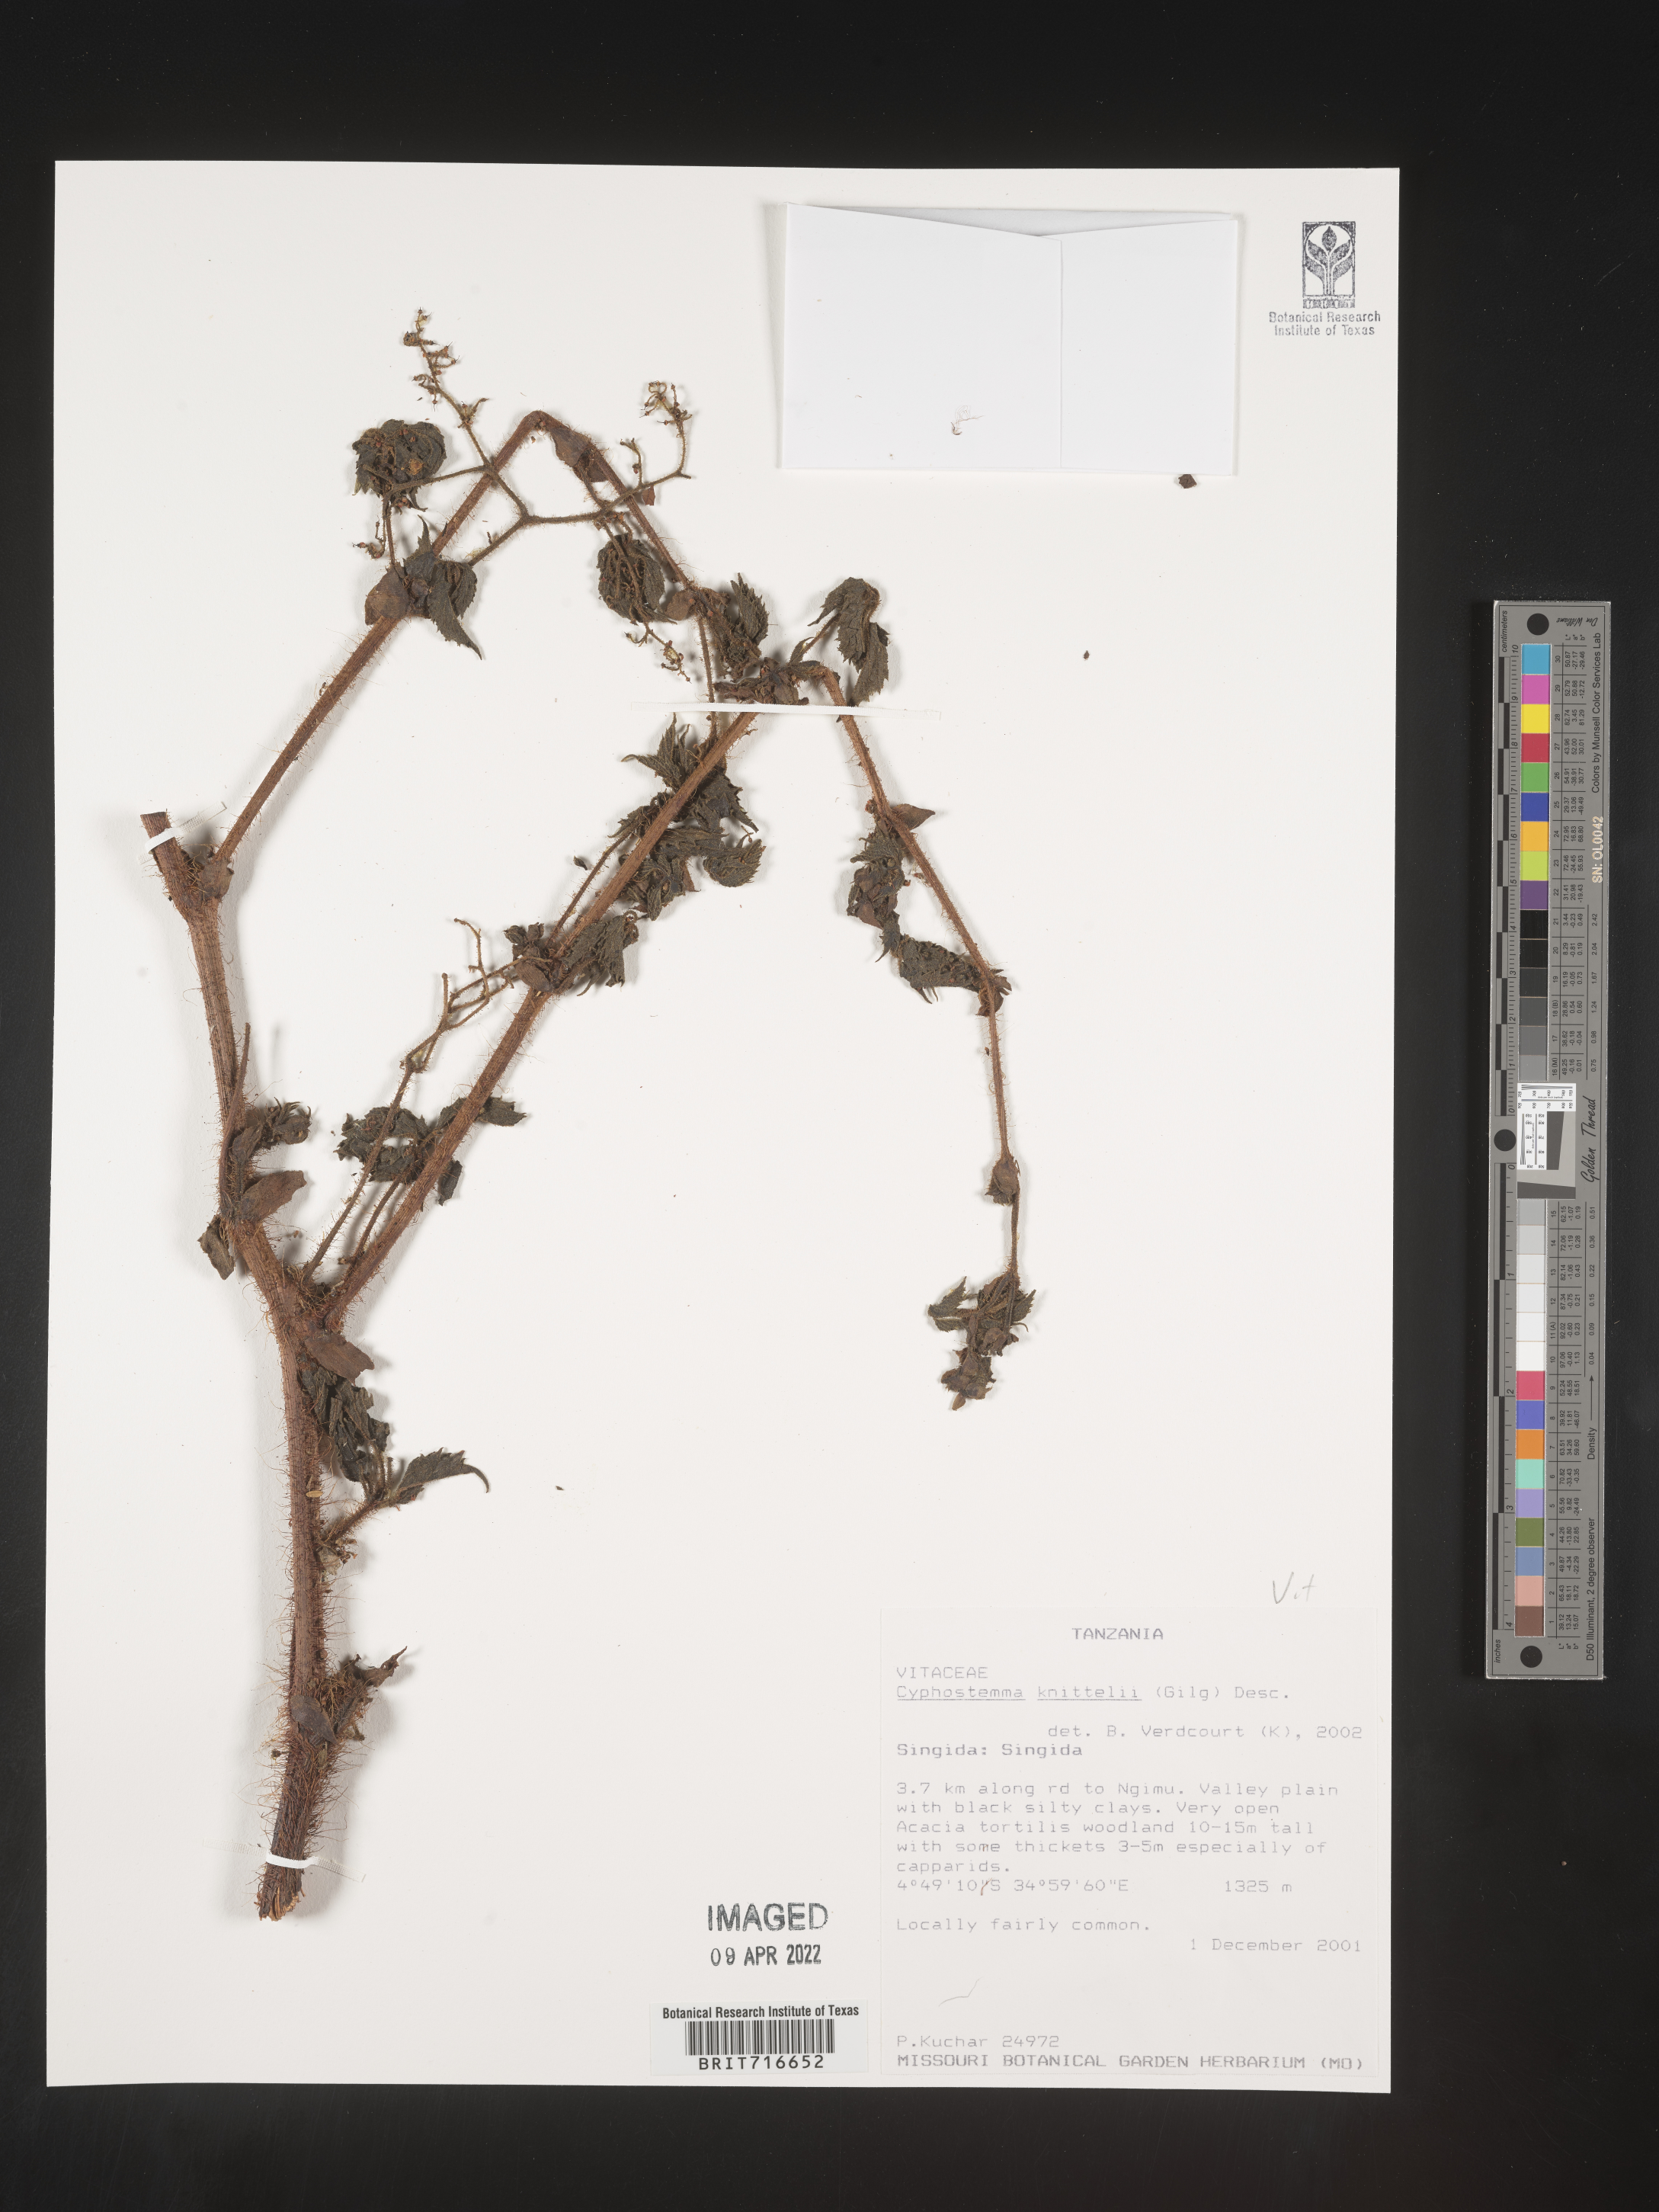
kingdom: Plantae
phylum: Tracheophyta
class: Magnoliopsida
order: Vitales
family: Vitaceae
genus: Cyphostemma
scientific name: Cyphostemma
